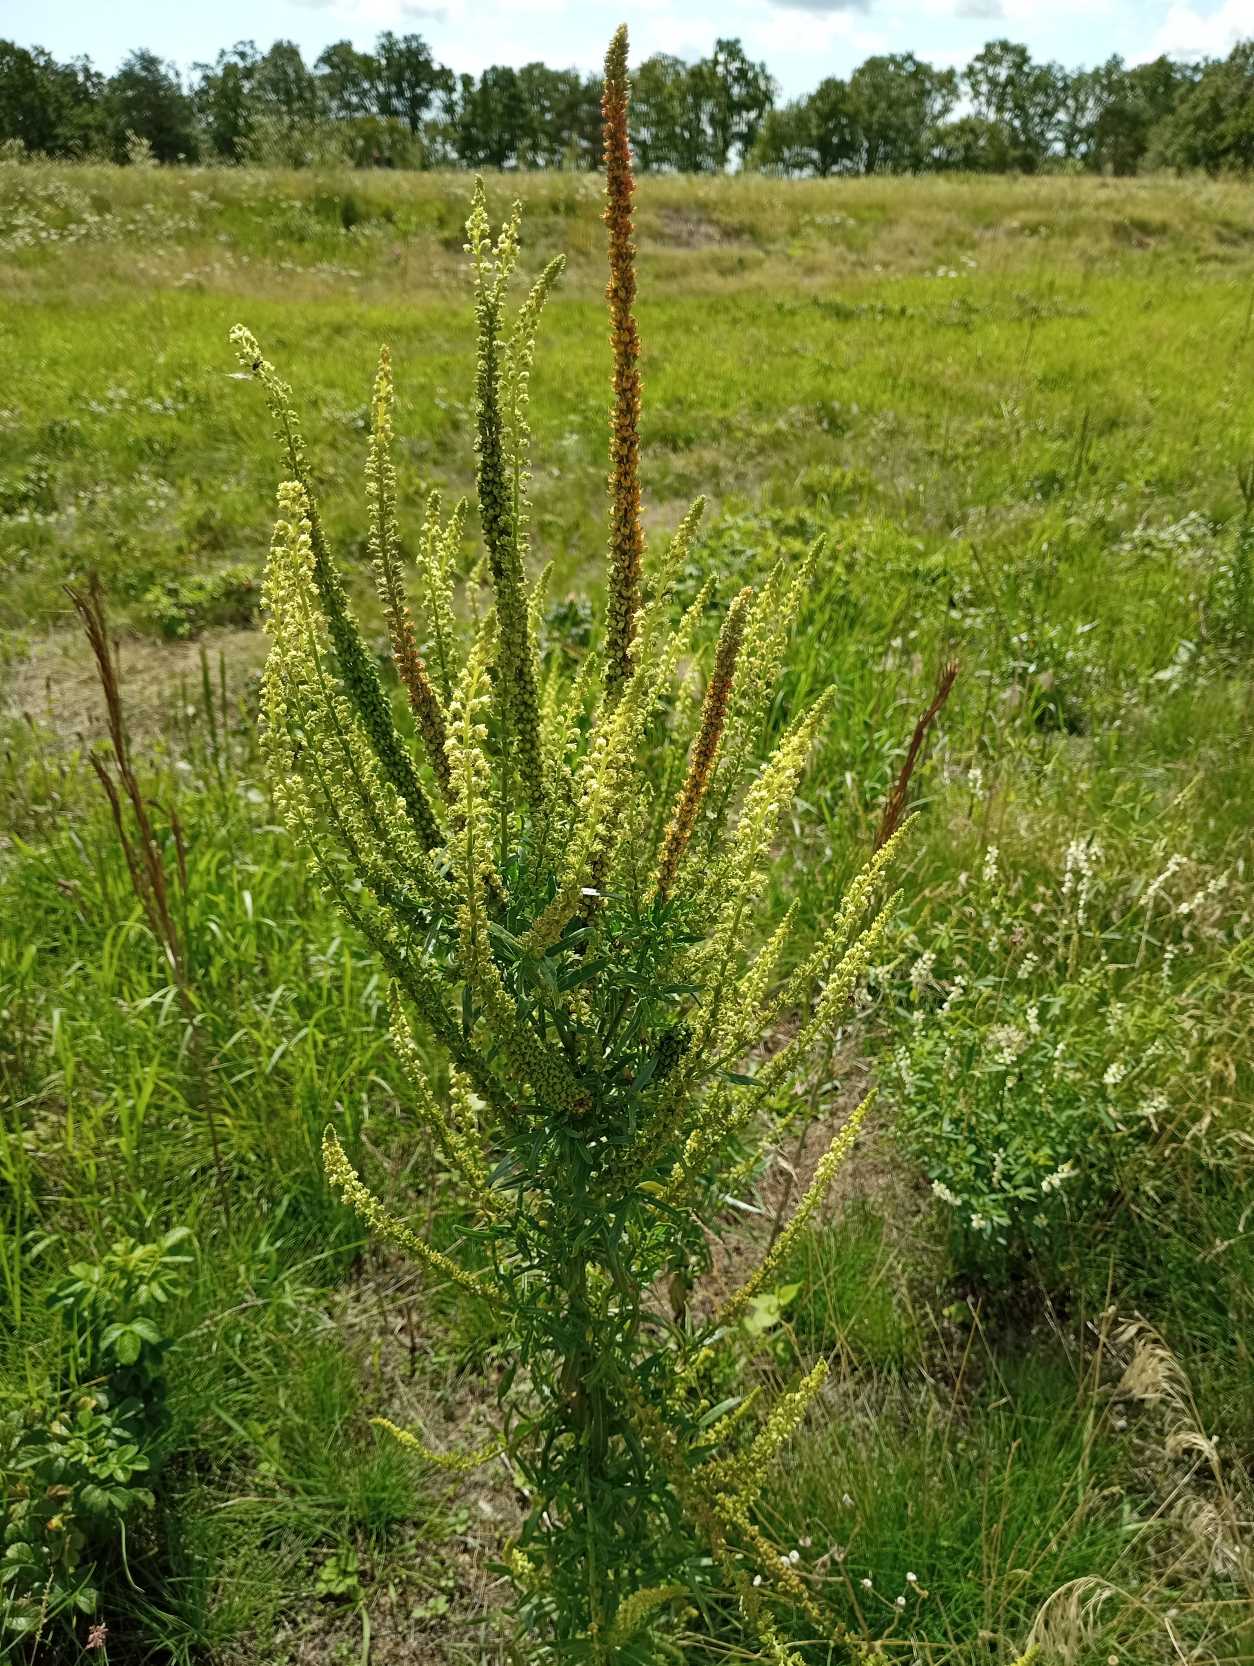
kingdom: Plantae
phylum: Tracheophyta
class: Magnoliopsida
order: Brassicales
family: Resedaceae
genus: Reseda
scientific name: Reseda luteola
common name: Farve-reseda
